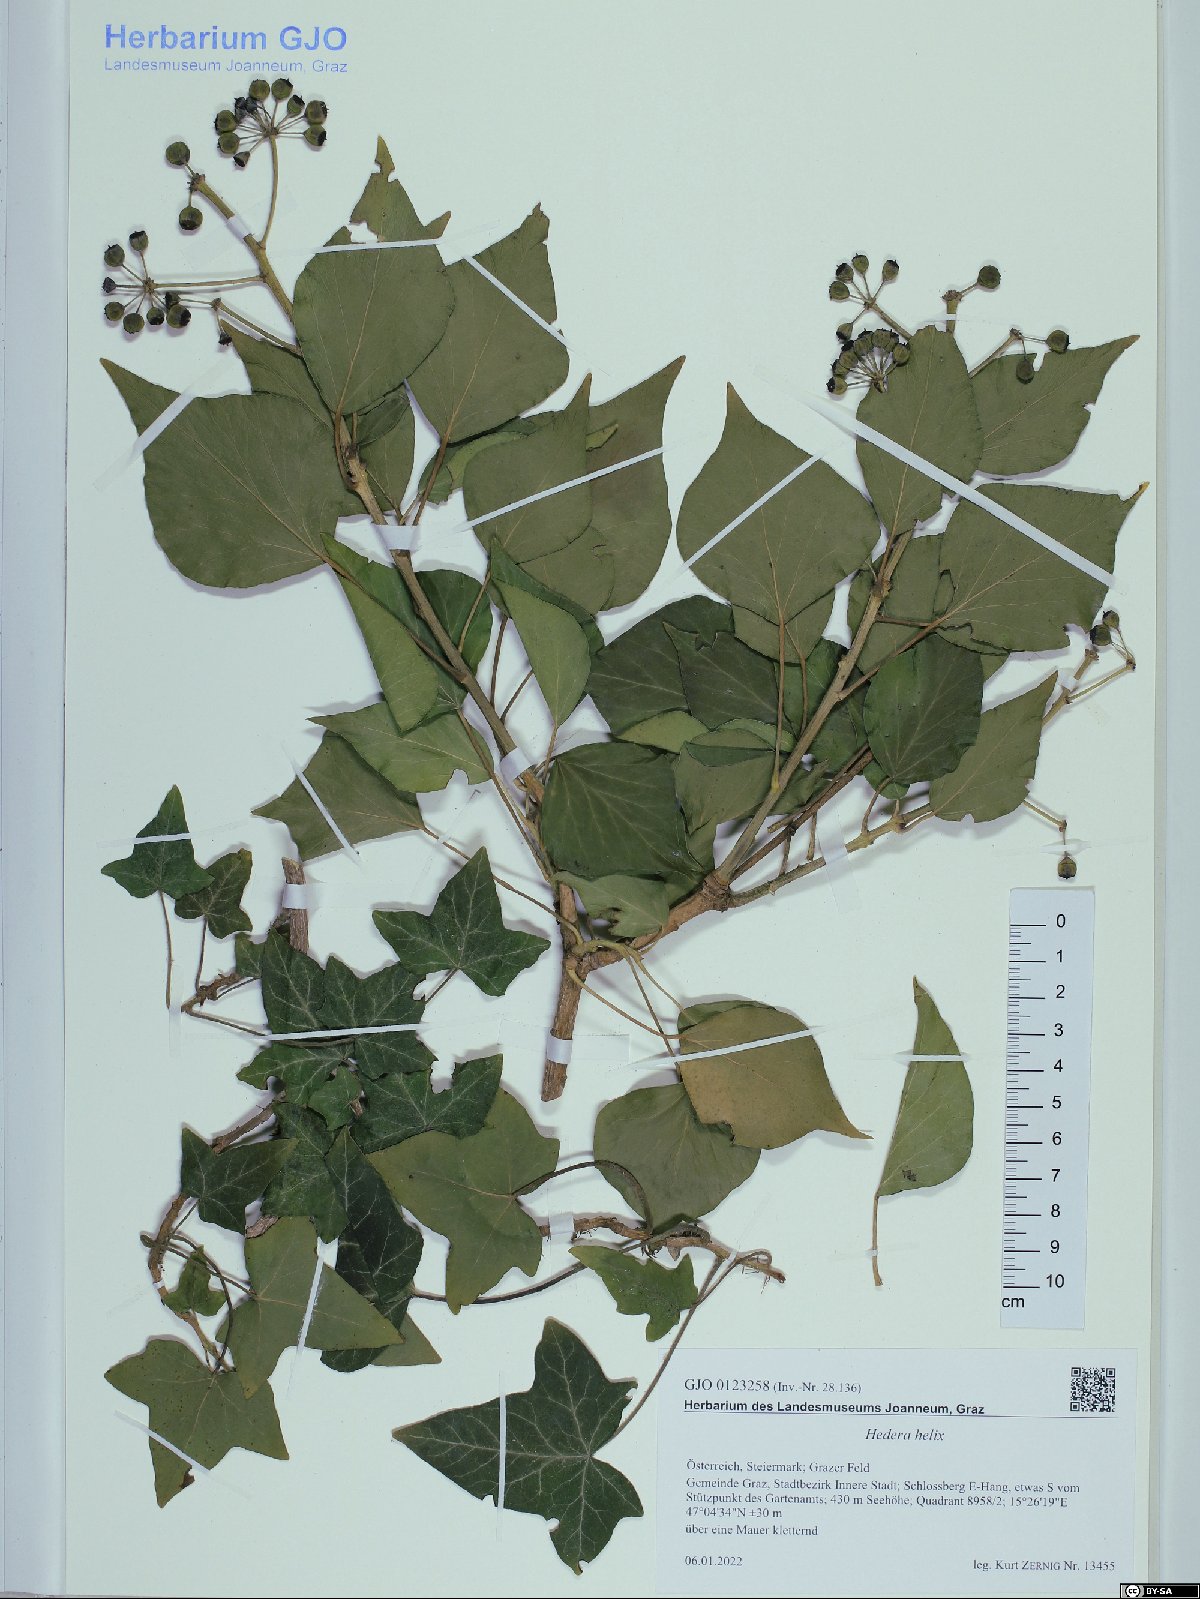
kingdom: Plantae
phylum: Tracheophyta
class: Magnoliopsida
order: Apiales
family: Araliaceae
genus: Hedera
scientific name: Hedera helix
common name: Ivy
